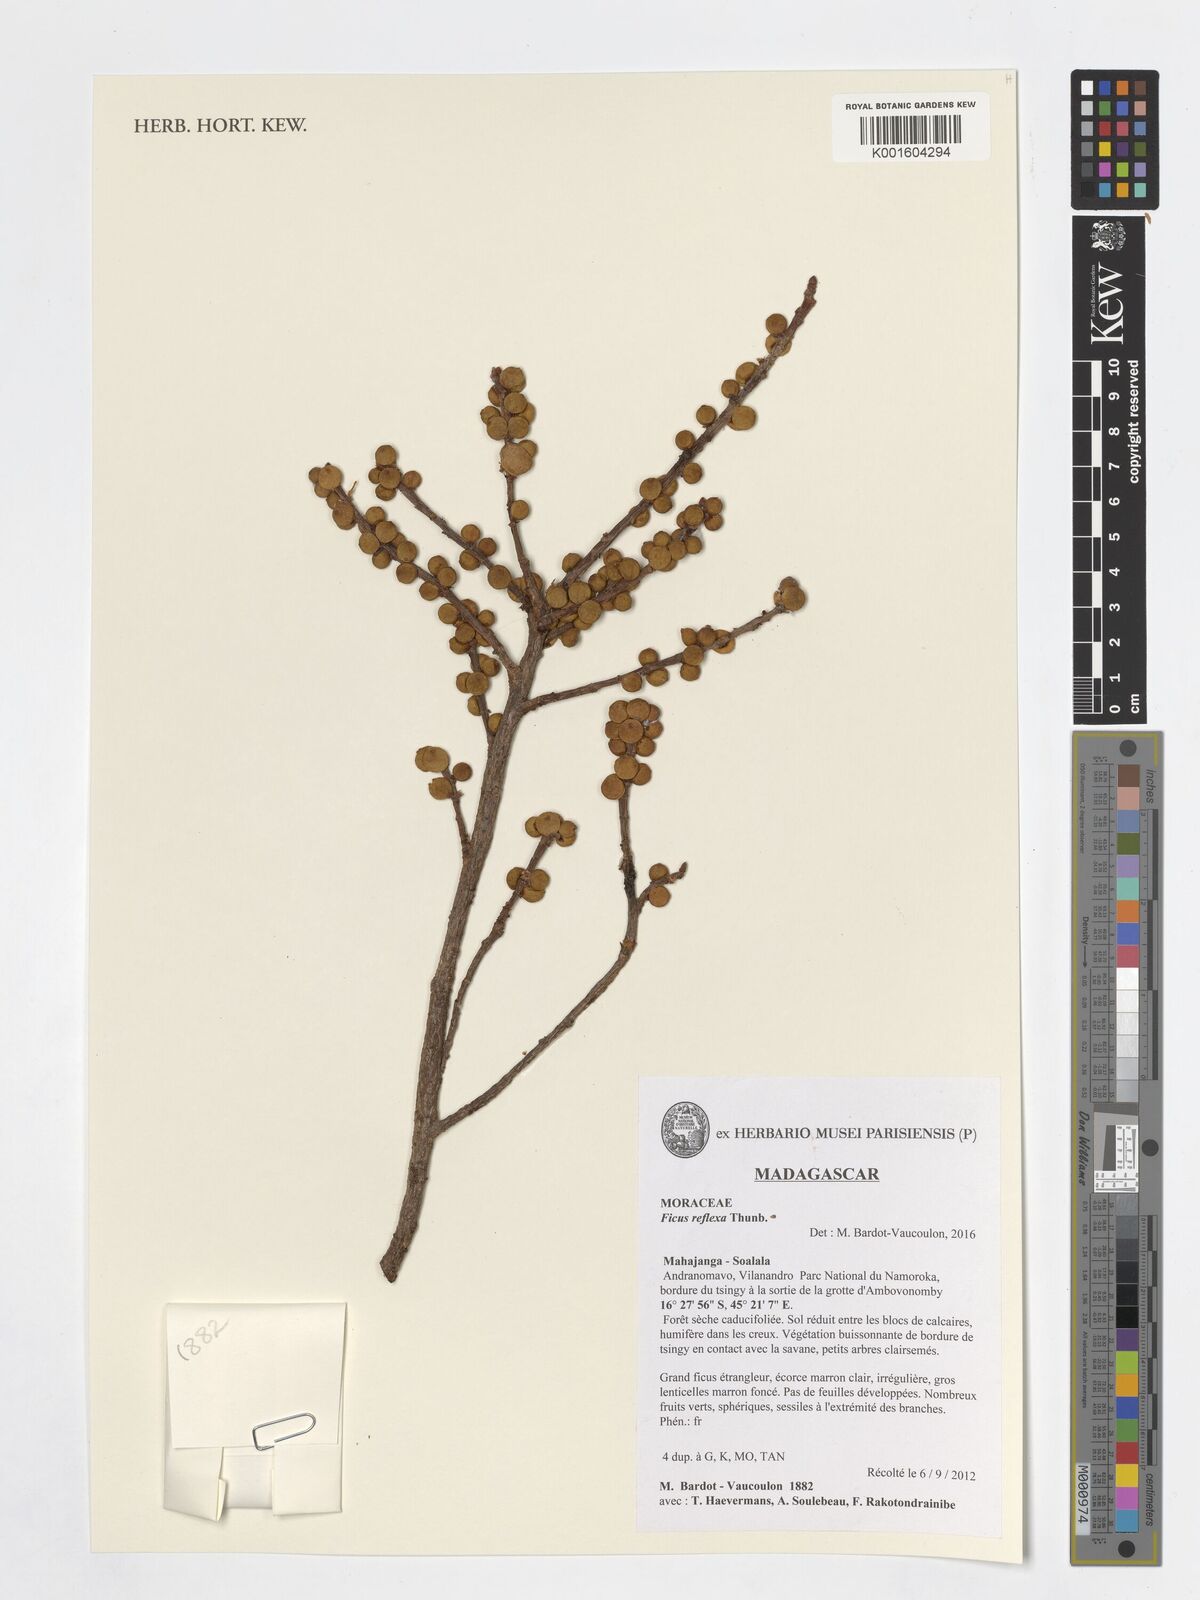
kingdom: Plantae
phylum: Tracheophyta
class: Magnoliopsida
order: Rosales
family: Moraceae
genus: Ficus
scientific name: Ficus reflexa
